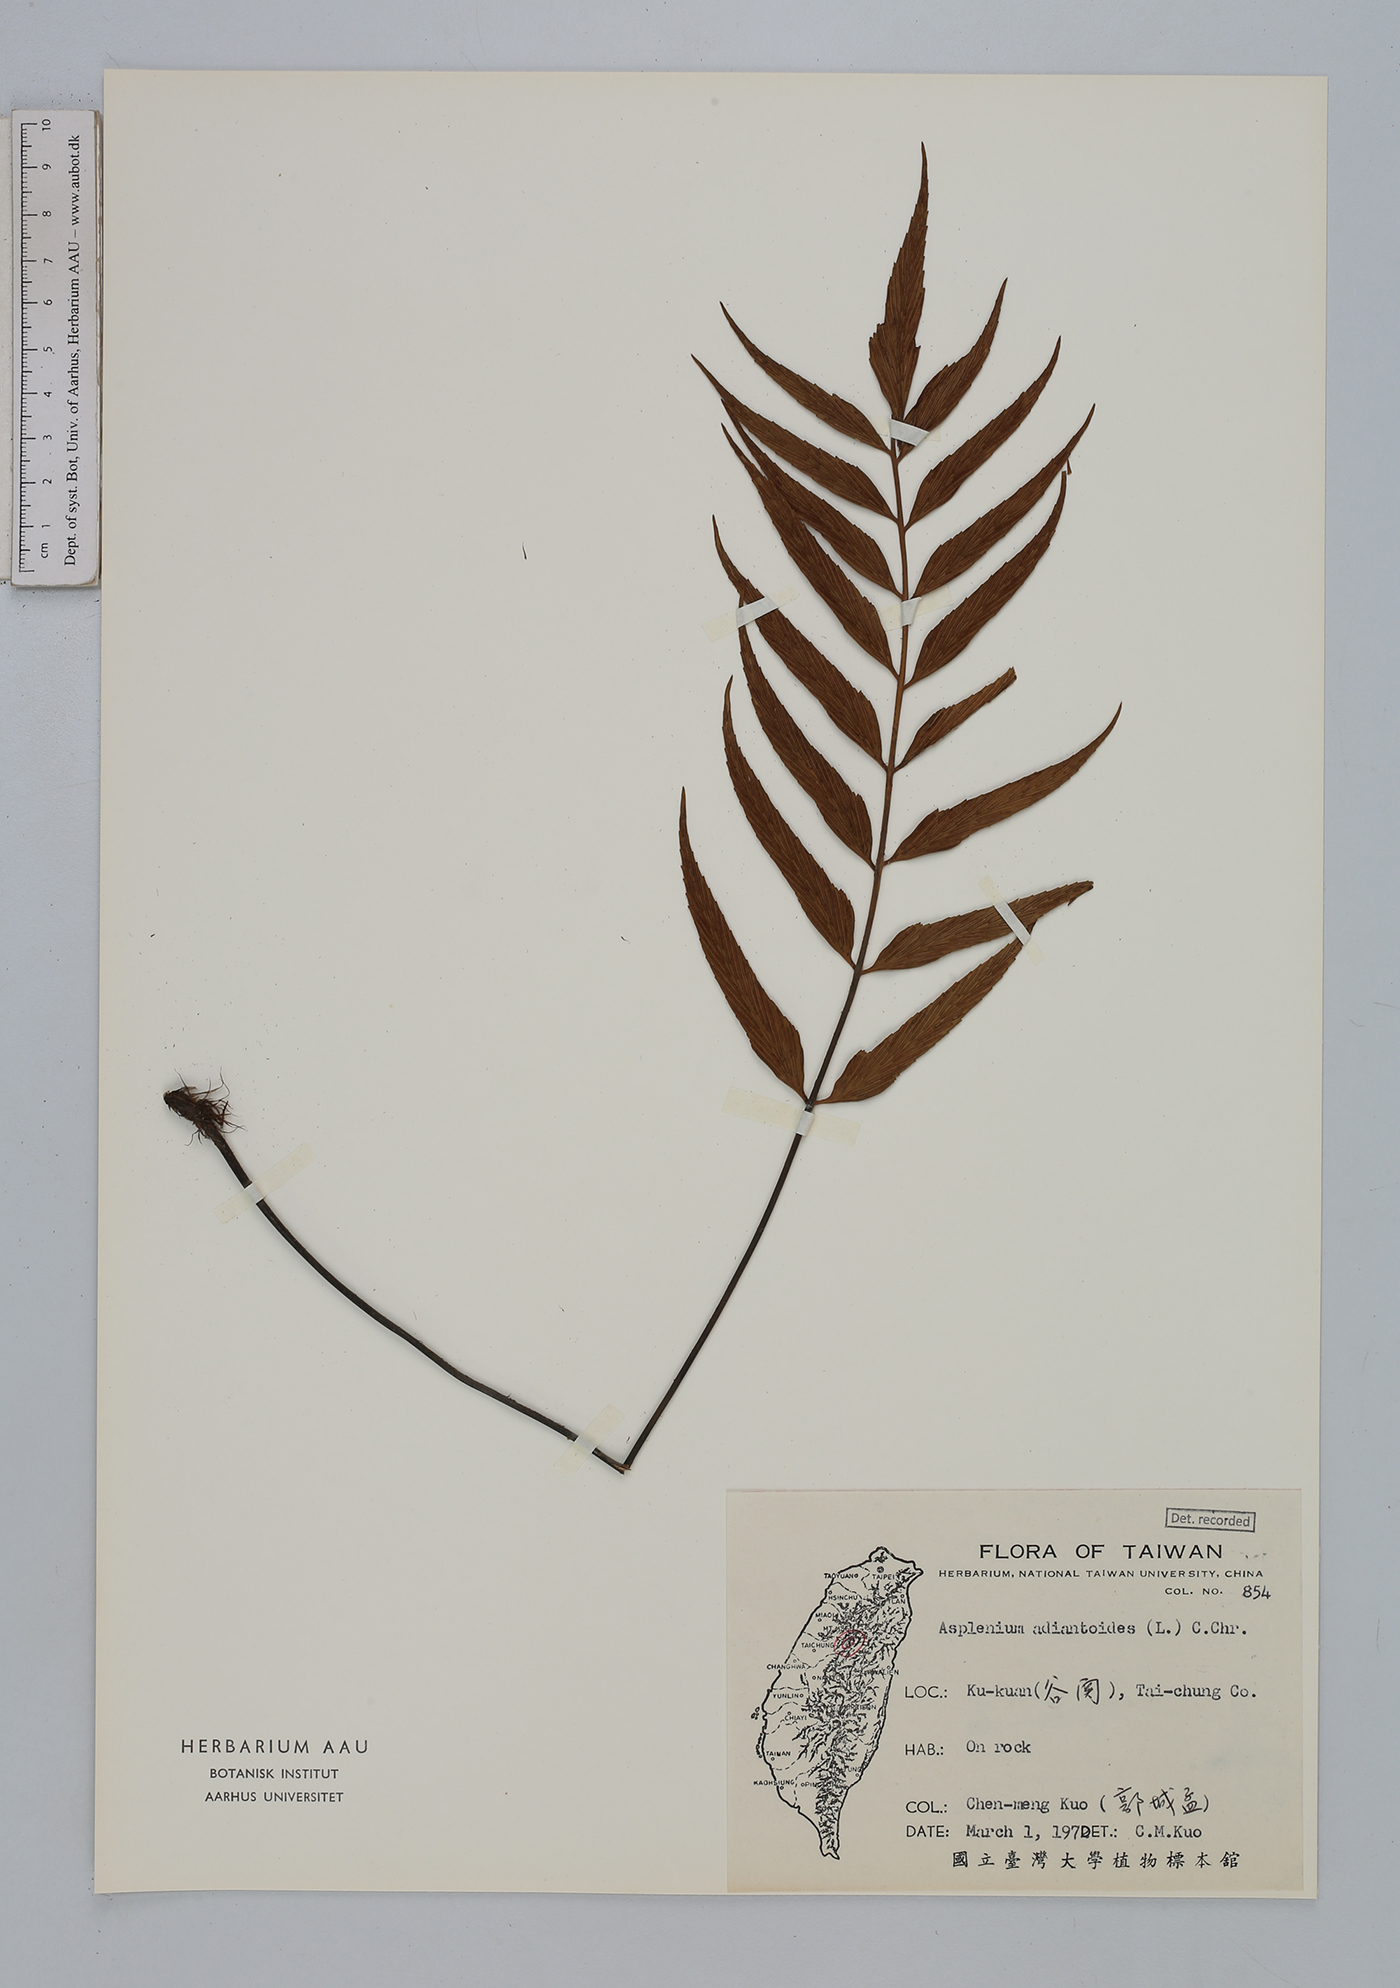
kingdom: Plantae
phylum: Tracheophyta
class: Polypodiopsida
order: Polypodiales
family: Aspleniaceae
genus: Asplenium
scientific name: Asplenium aethiopicum
